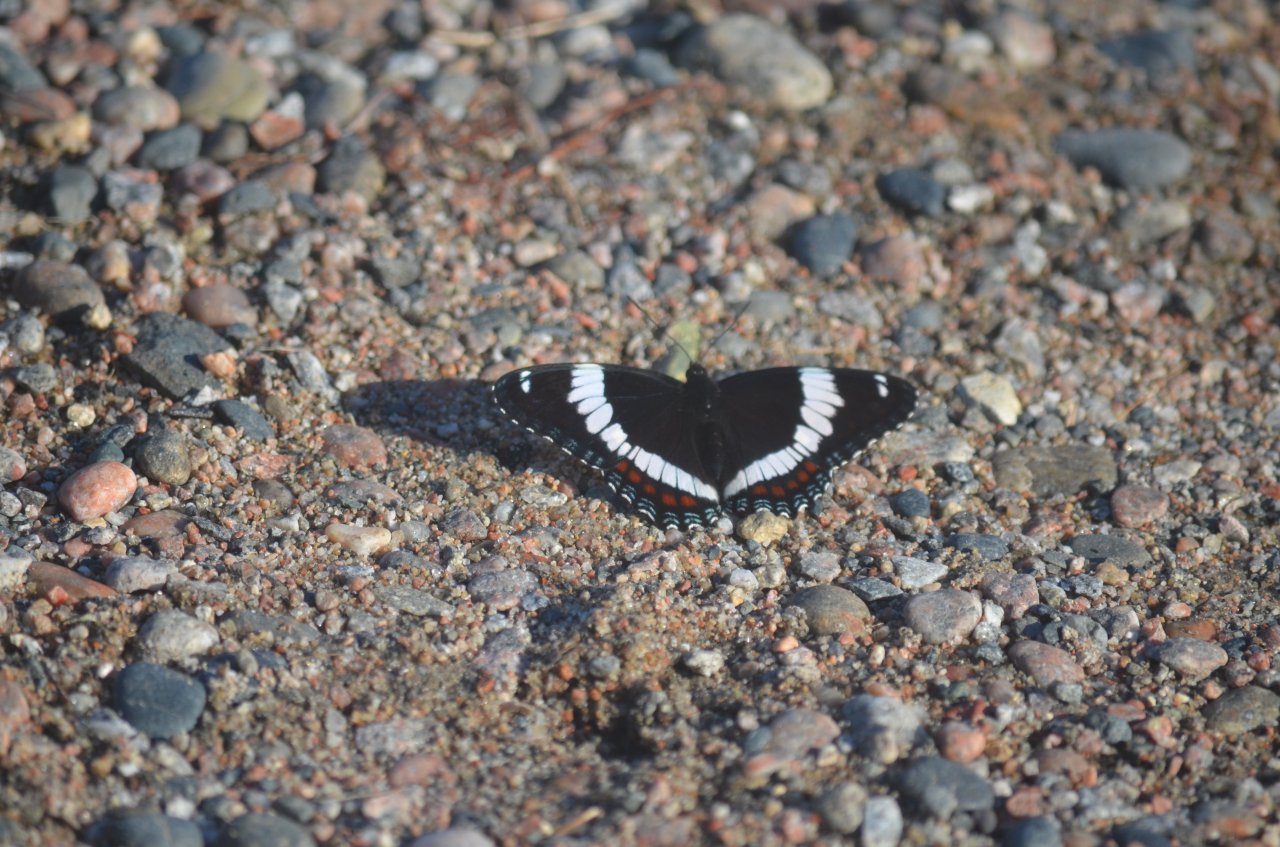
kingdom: Animalia
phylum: Arthropoda
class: Insecta
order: Lepidoptera
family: Nymphalidae
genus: Limenitis
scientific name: Limenitis arthemis
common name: Red-spotted Admiral
